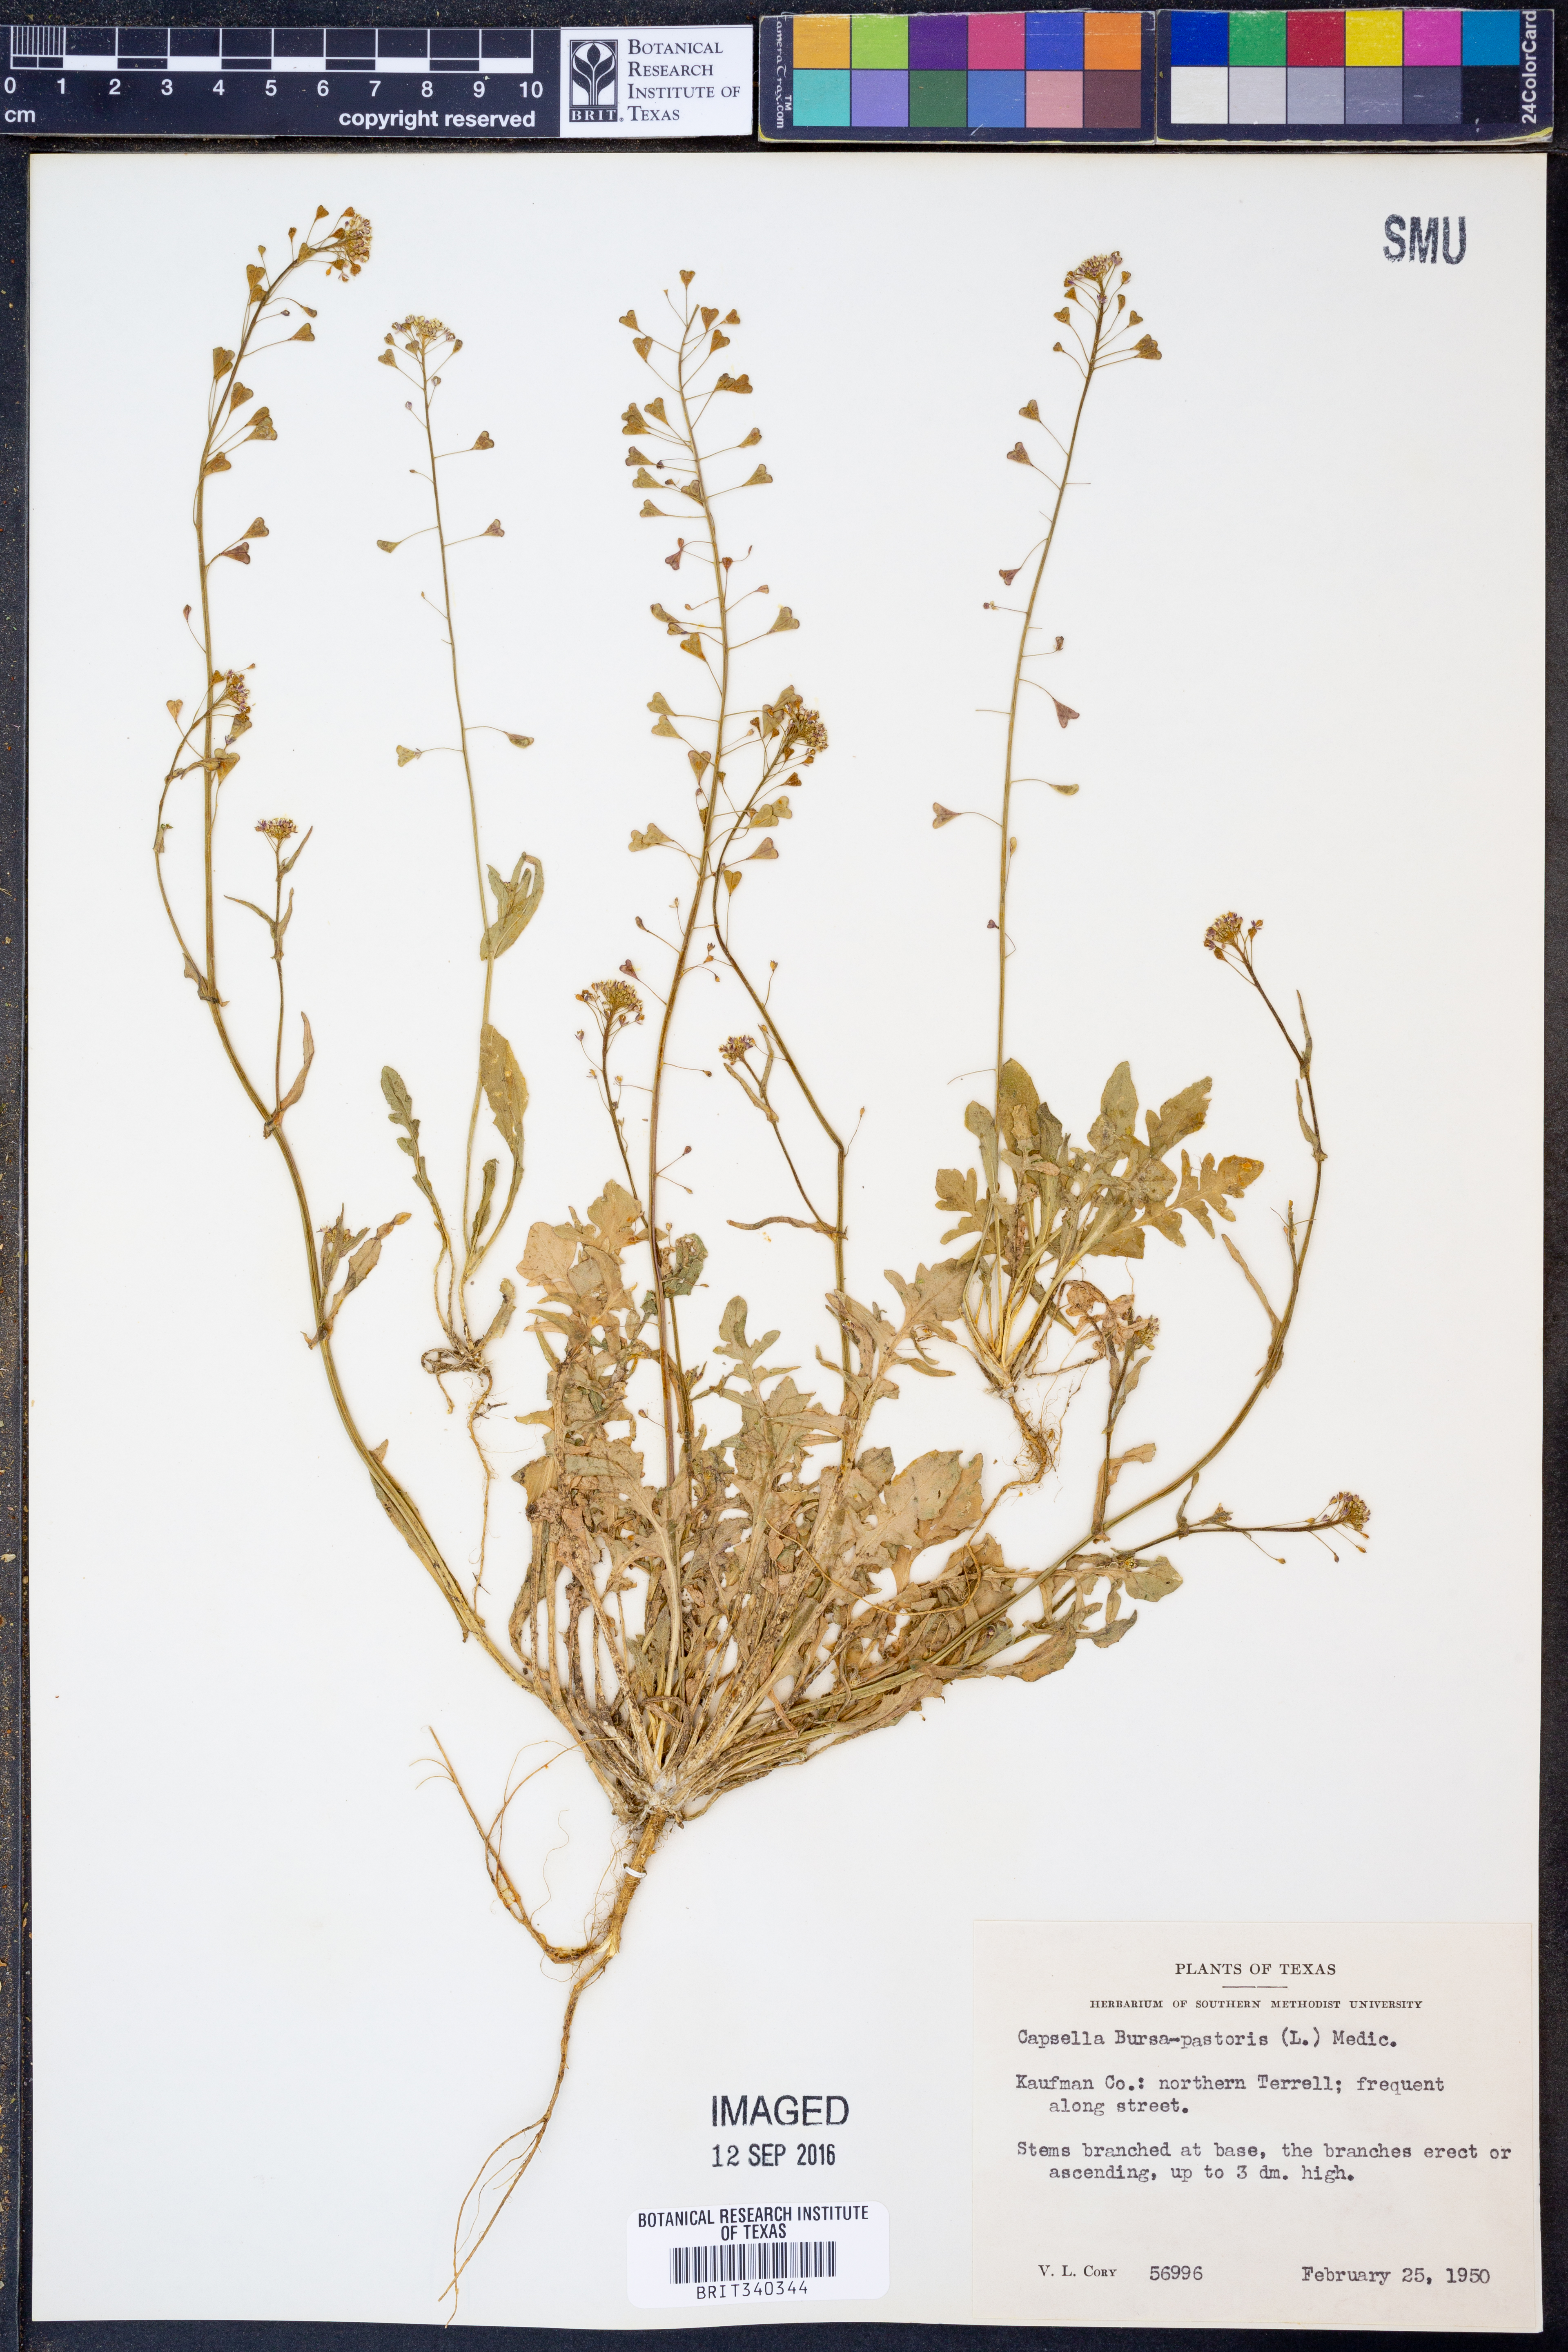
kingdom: Plantae
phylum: Tracheophyta
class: Magnoliopsida
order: Brassicales
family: Brassicaceae
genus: Capsella
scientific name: Capsella bursa-pastoris
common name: Shepherd's purse
